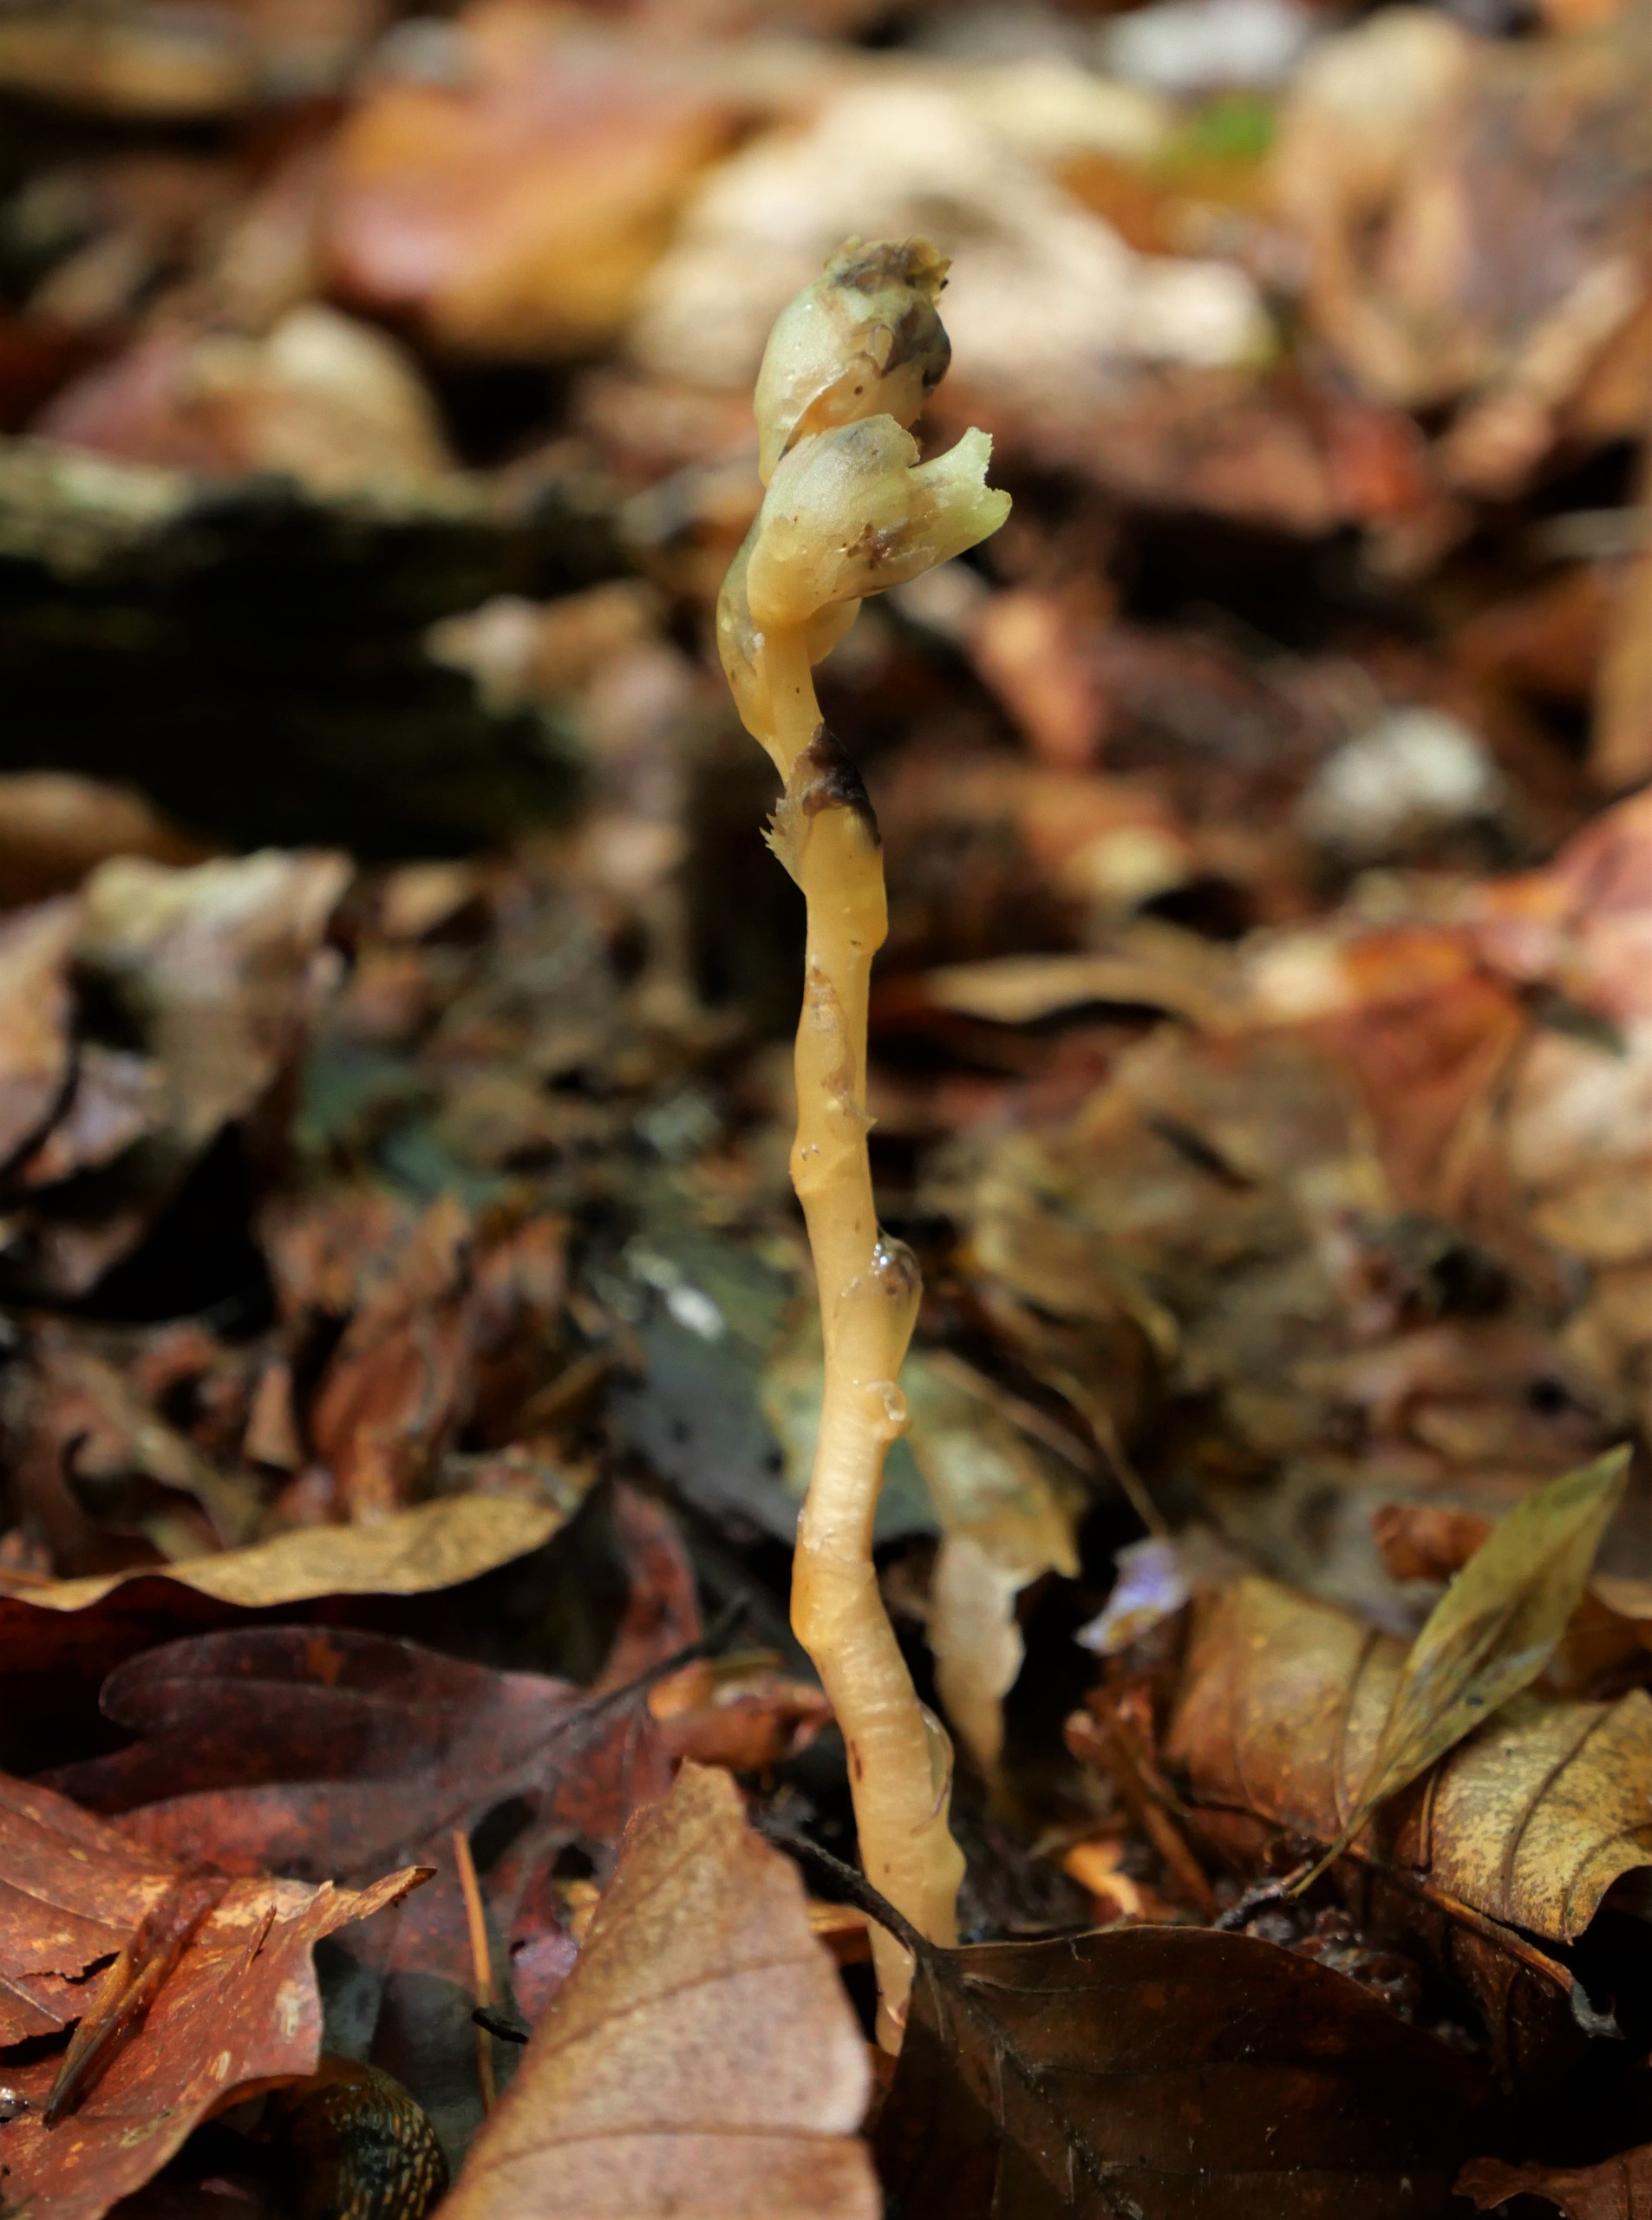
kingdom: Plantae
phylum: Tracheophyta
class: Magnoliopsida
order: Ericales
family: Ericaceae
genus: Hypopitys
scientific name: Hypopitys monotropa
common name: Snylterod
